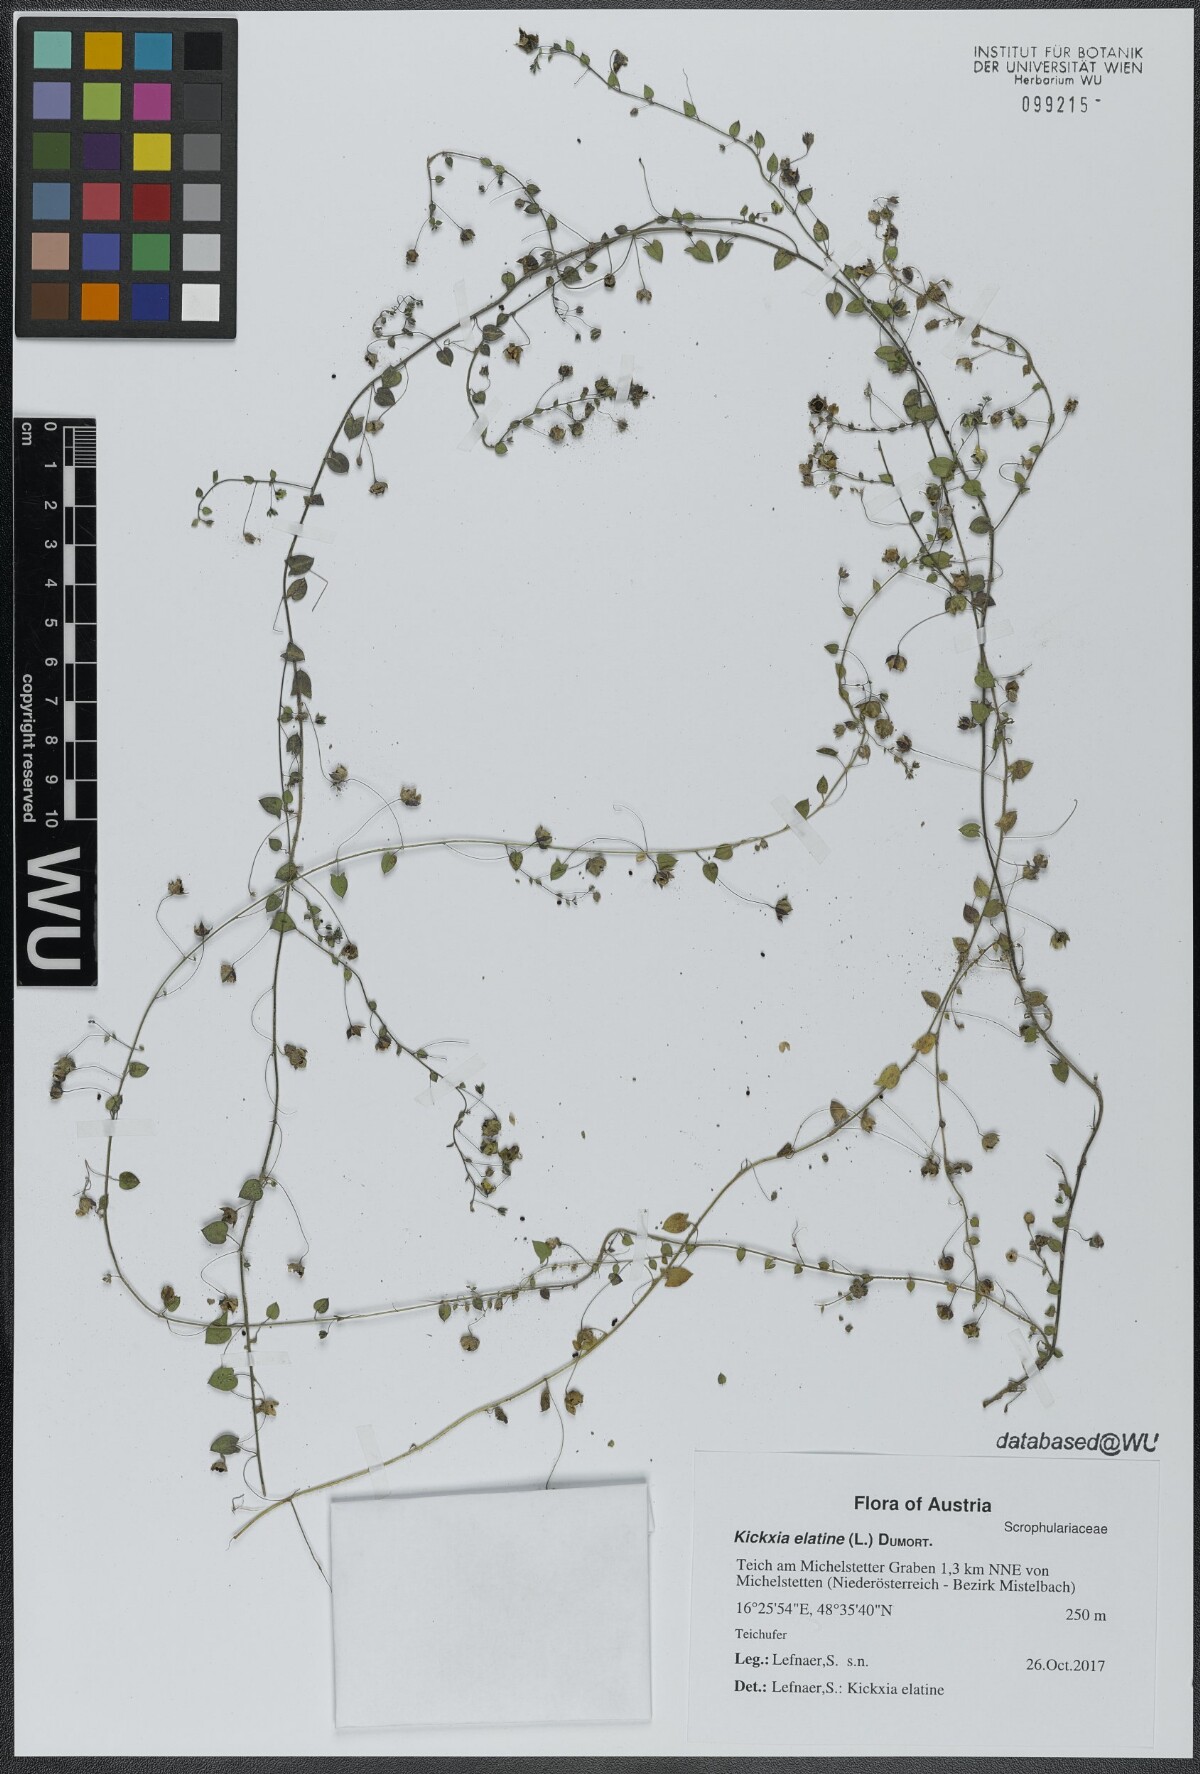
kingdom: Plantae
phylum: Tracheophyta
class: Magnoliopsida
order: Lamiales
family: Plantaginaceae
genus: Kickxia
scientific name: Kickxia elatine
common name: Sharp-leaved fluellen
